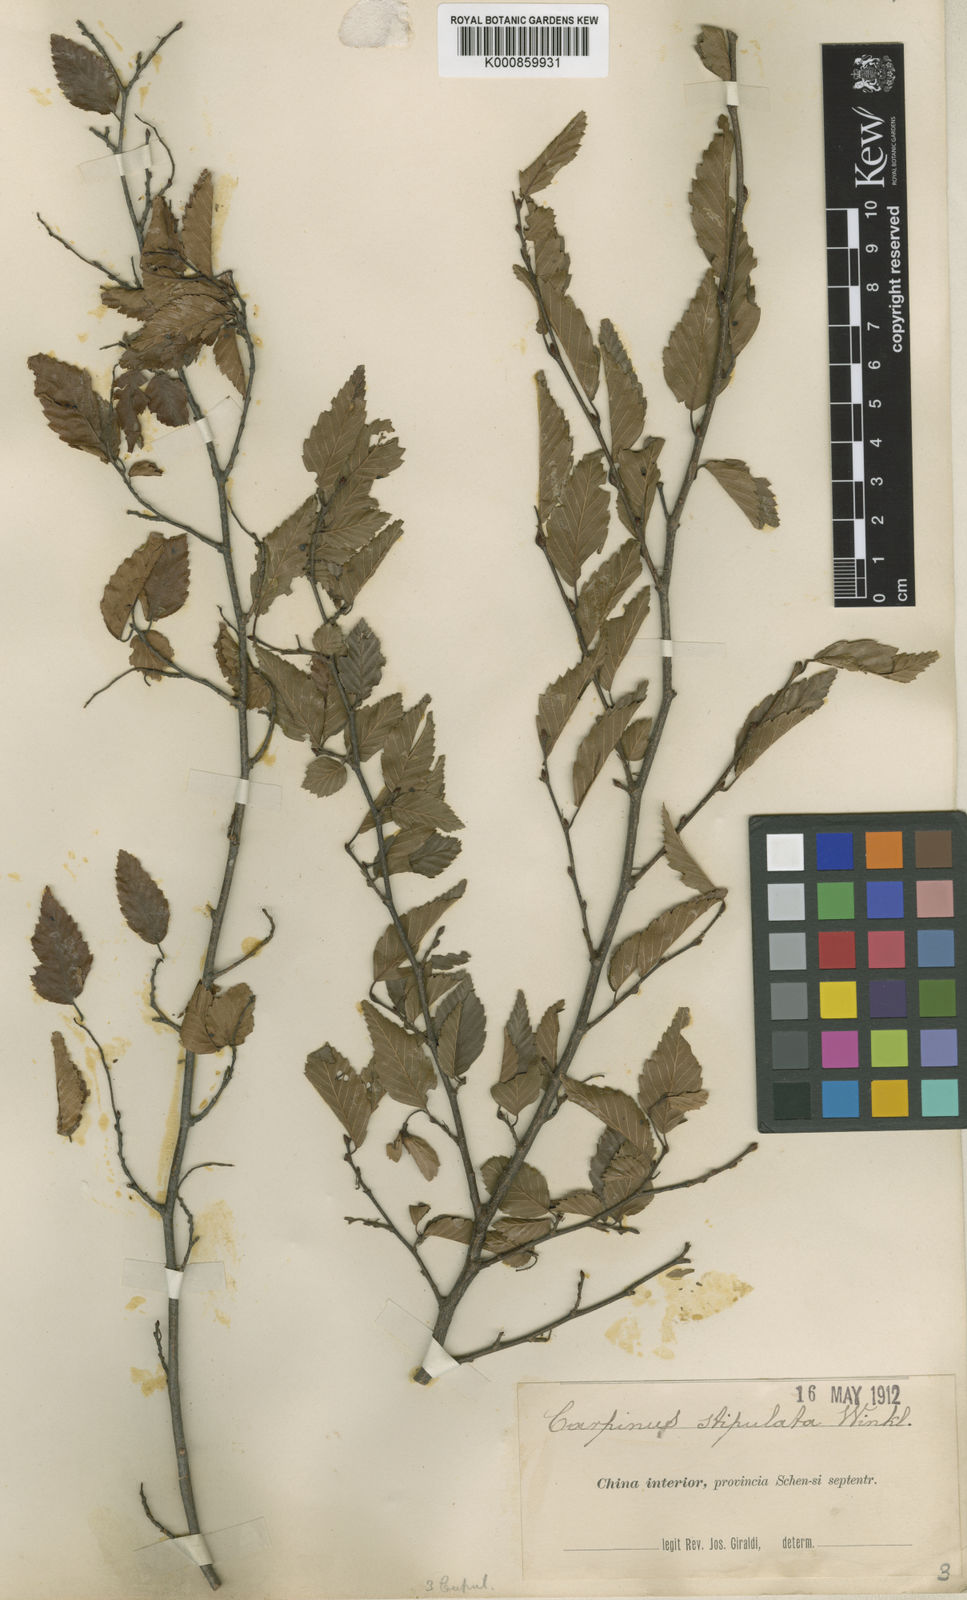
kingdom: Plantae
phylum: Tracheophyta
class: Magnoliopsida
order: Fagales
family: Betulaceae
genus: Carpinus
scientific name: Carpinus
